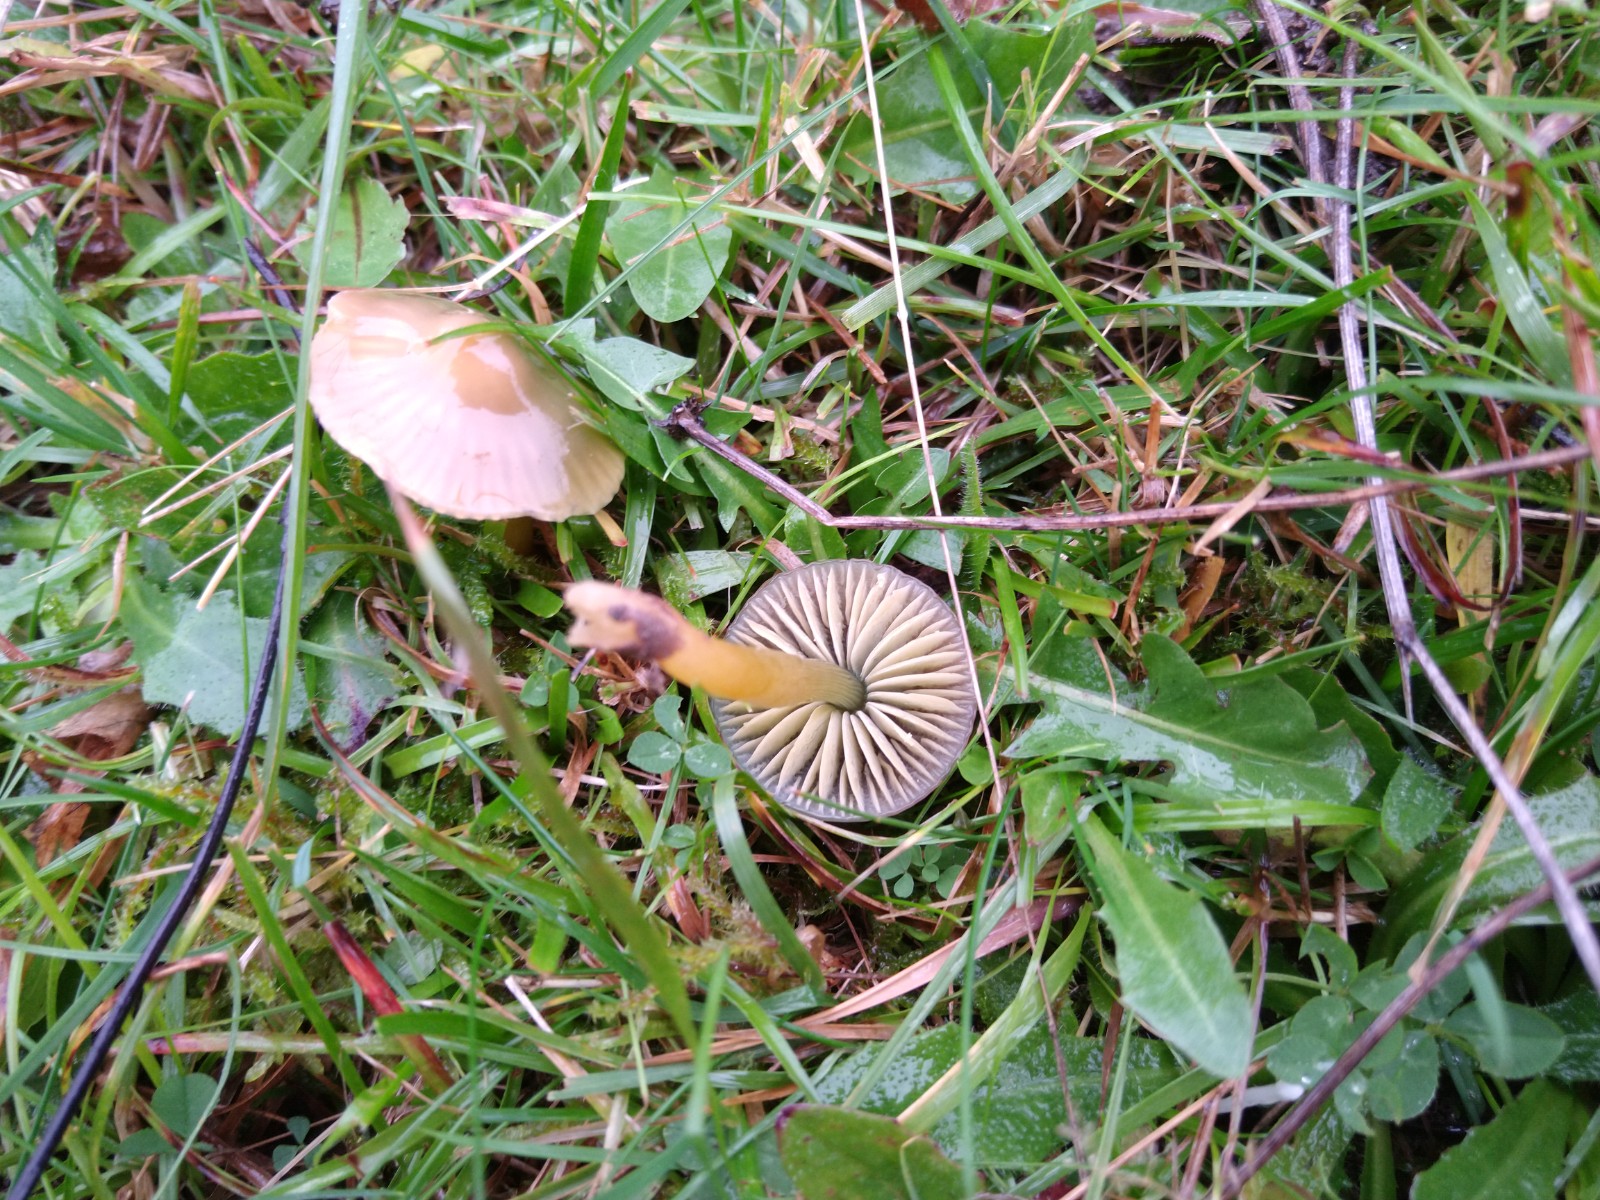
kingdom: Fungi
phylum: Basidiomycota
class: Agaricomycetes
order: Agaricales
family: Hygrophoraceae
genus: Gliophorus
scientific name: Gliophorus psittacinus
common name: papegøje-vokshat
